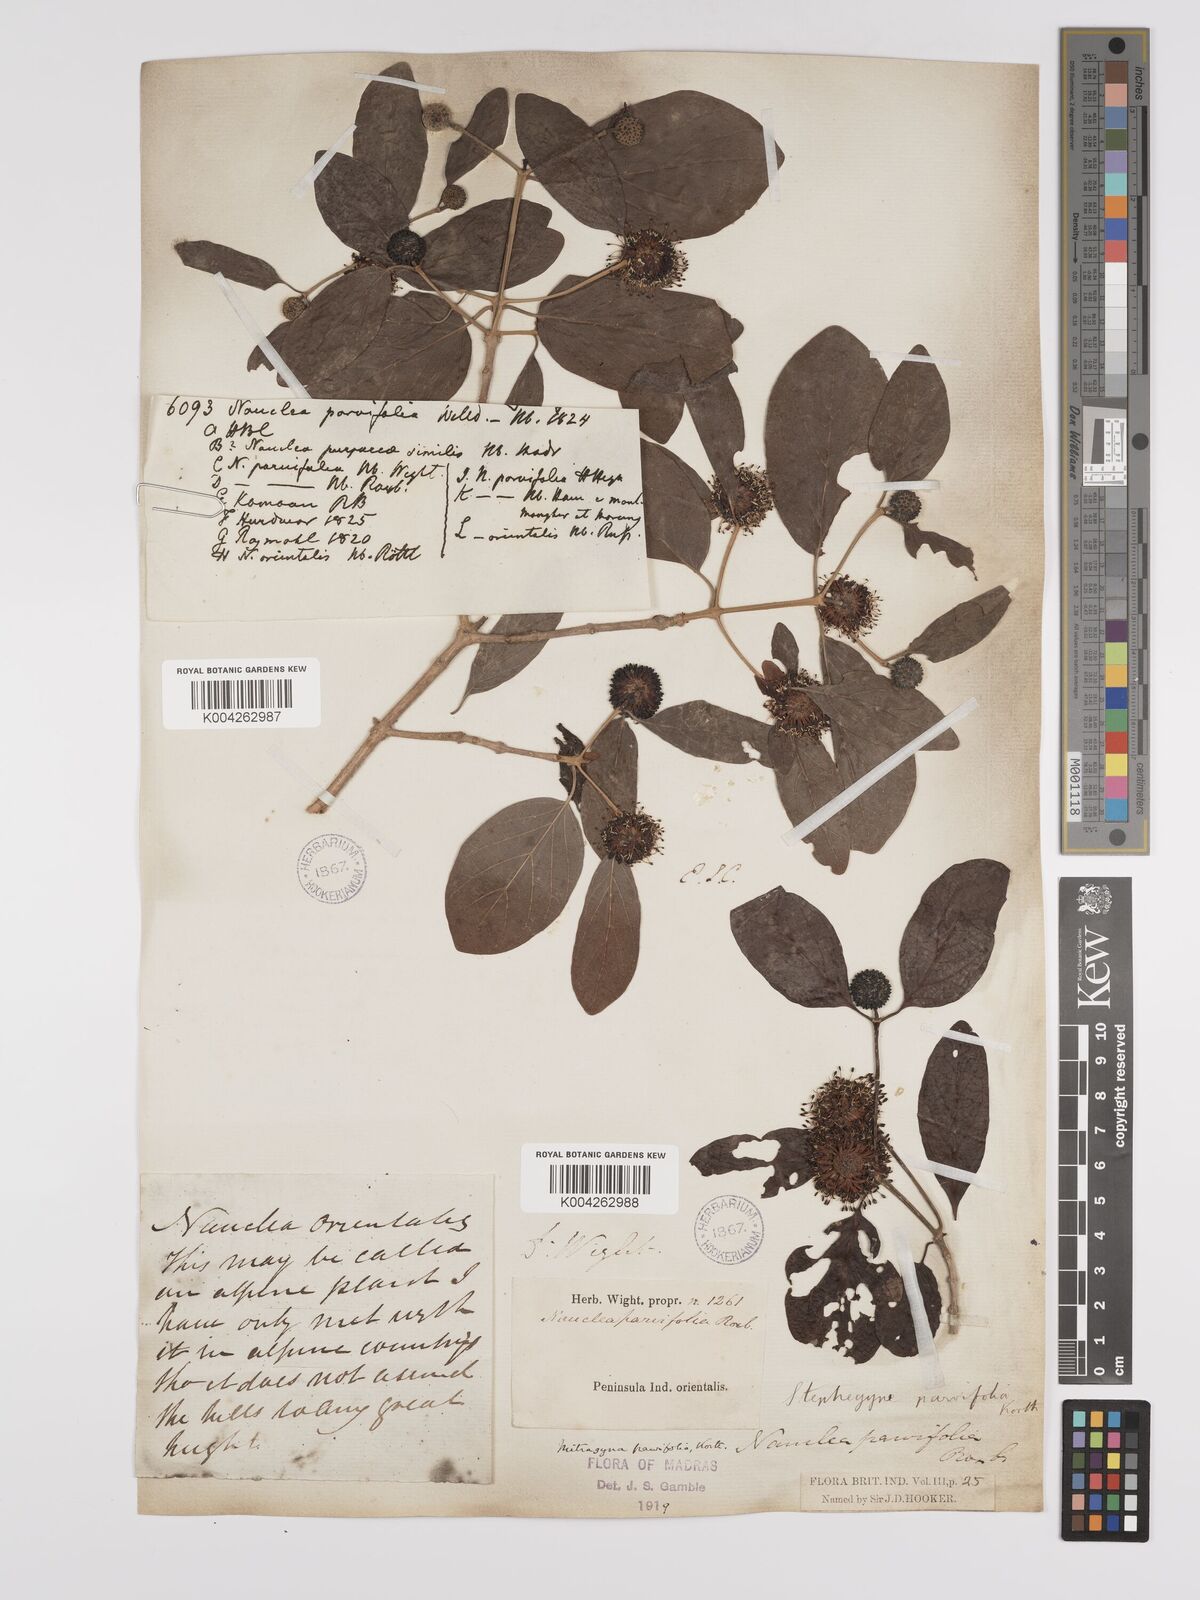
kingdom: Plantae
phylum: Tracheophyta
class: Magnoliopsida
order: Gentianales
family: Rubiaceae
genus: Mitragyna
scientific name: Mitragyna parvifolia
